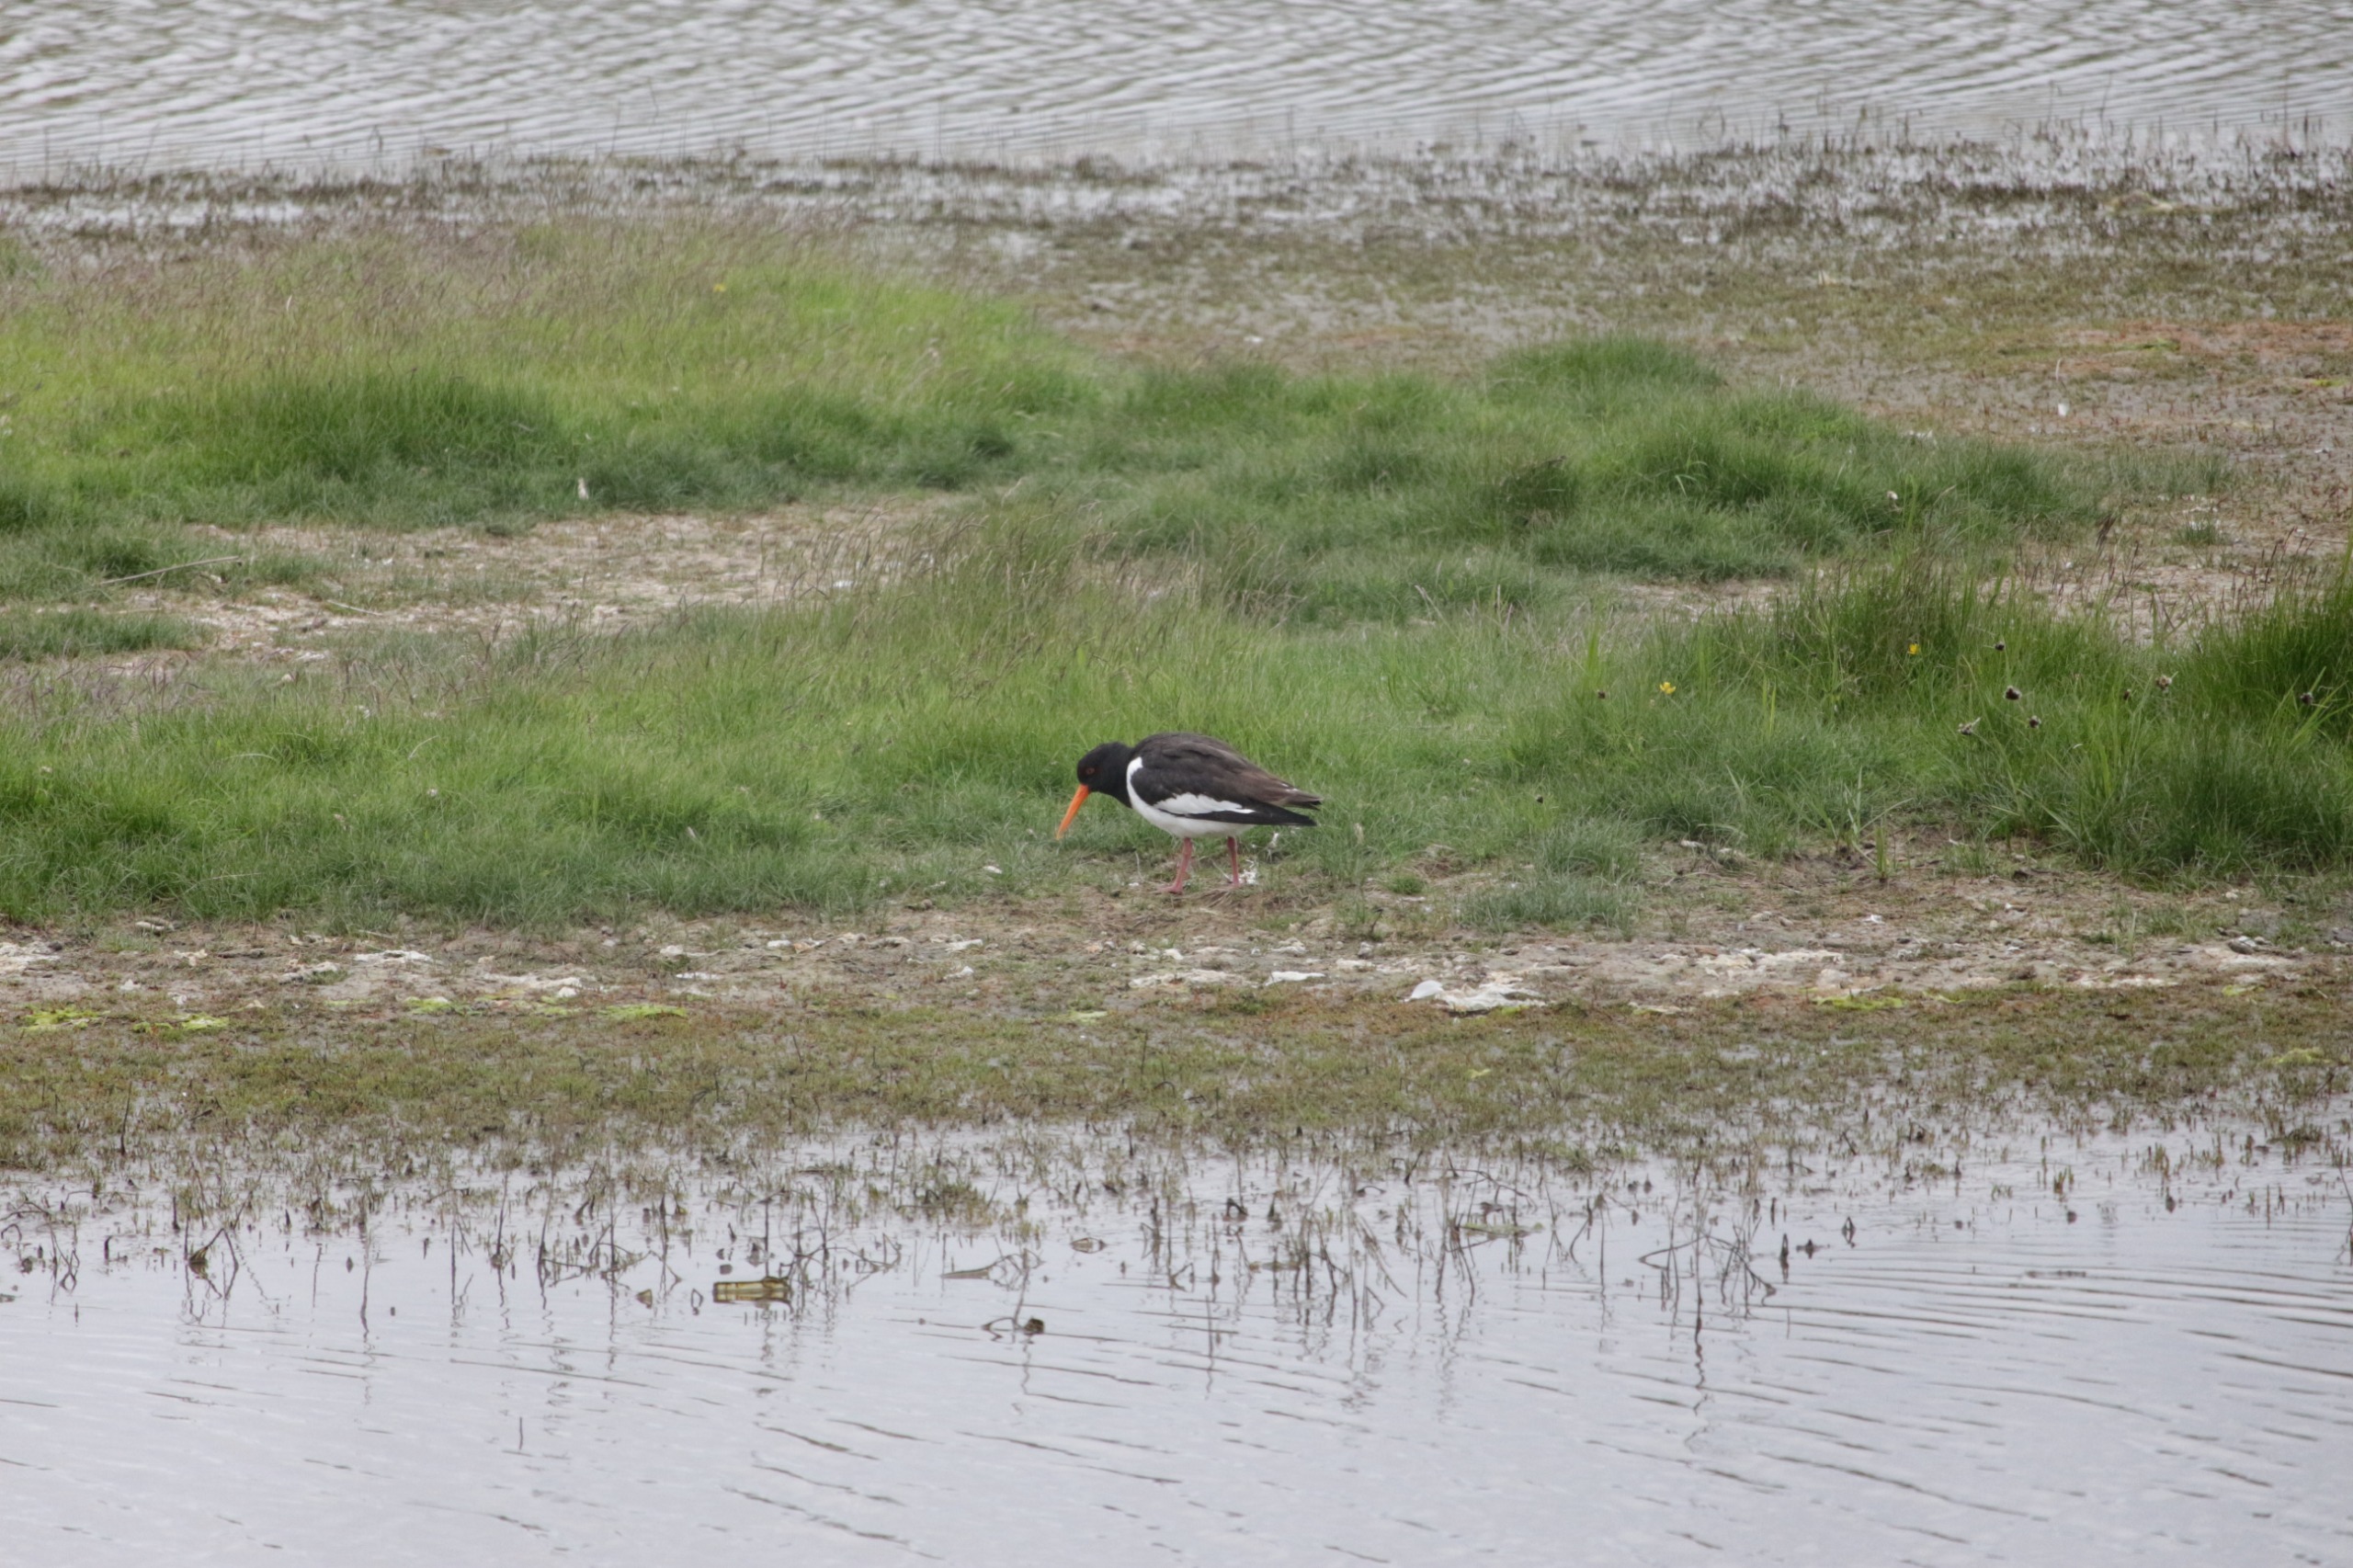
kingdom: Animalia
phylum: Chordata
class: Aves
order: Charadriiformes
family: Haematopodidae
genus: Haematopus
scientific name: Haematopus ostralegus
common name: Strandskade
